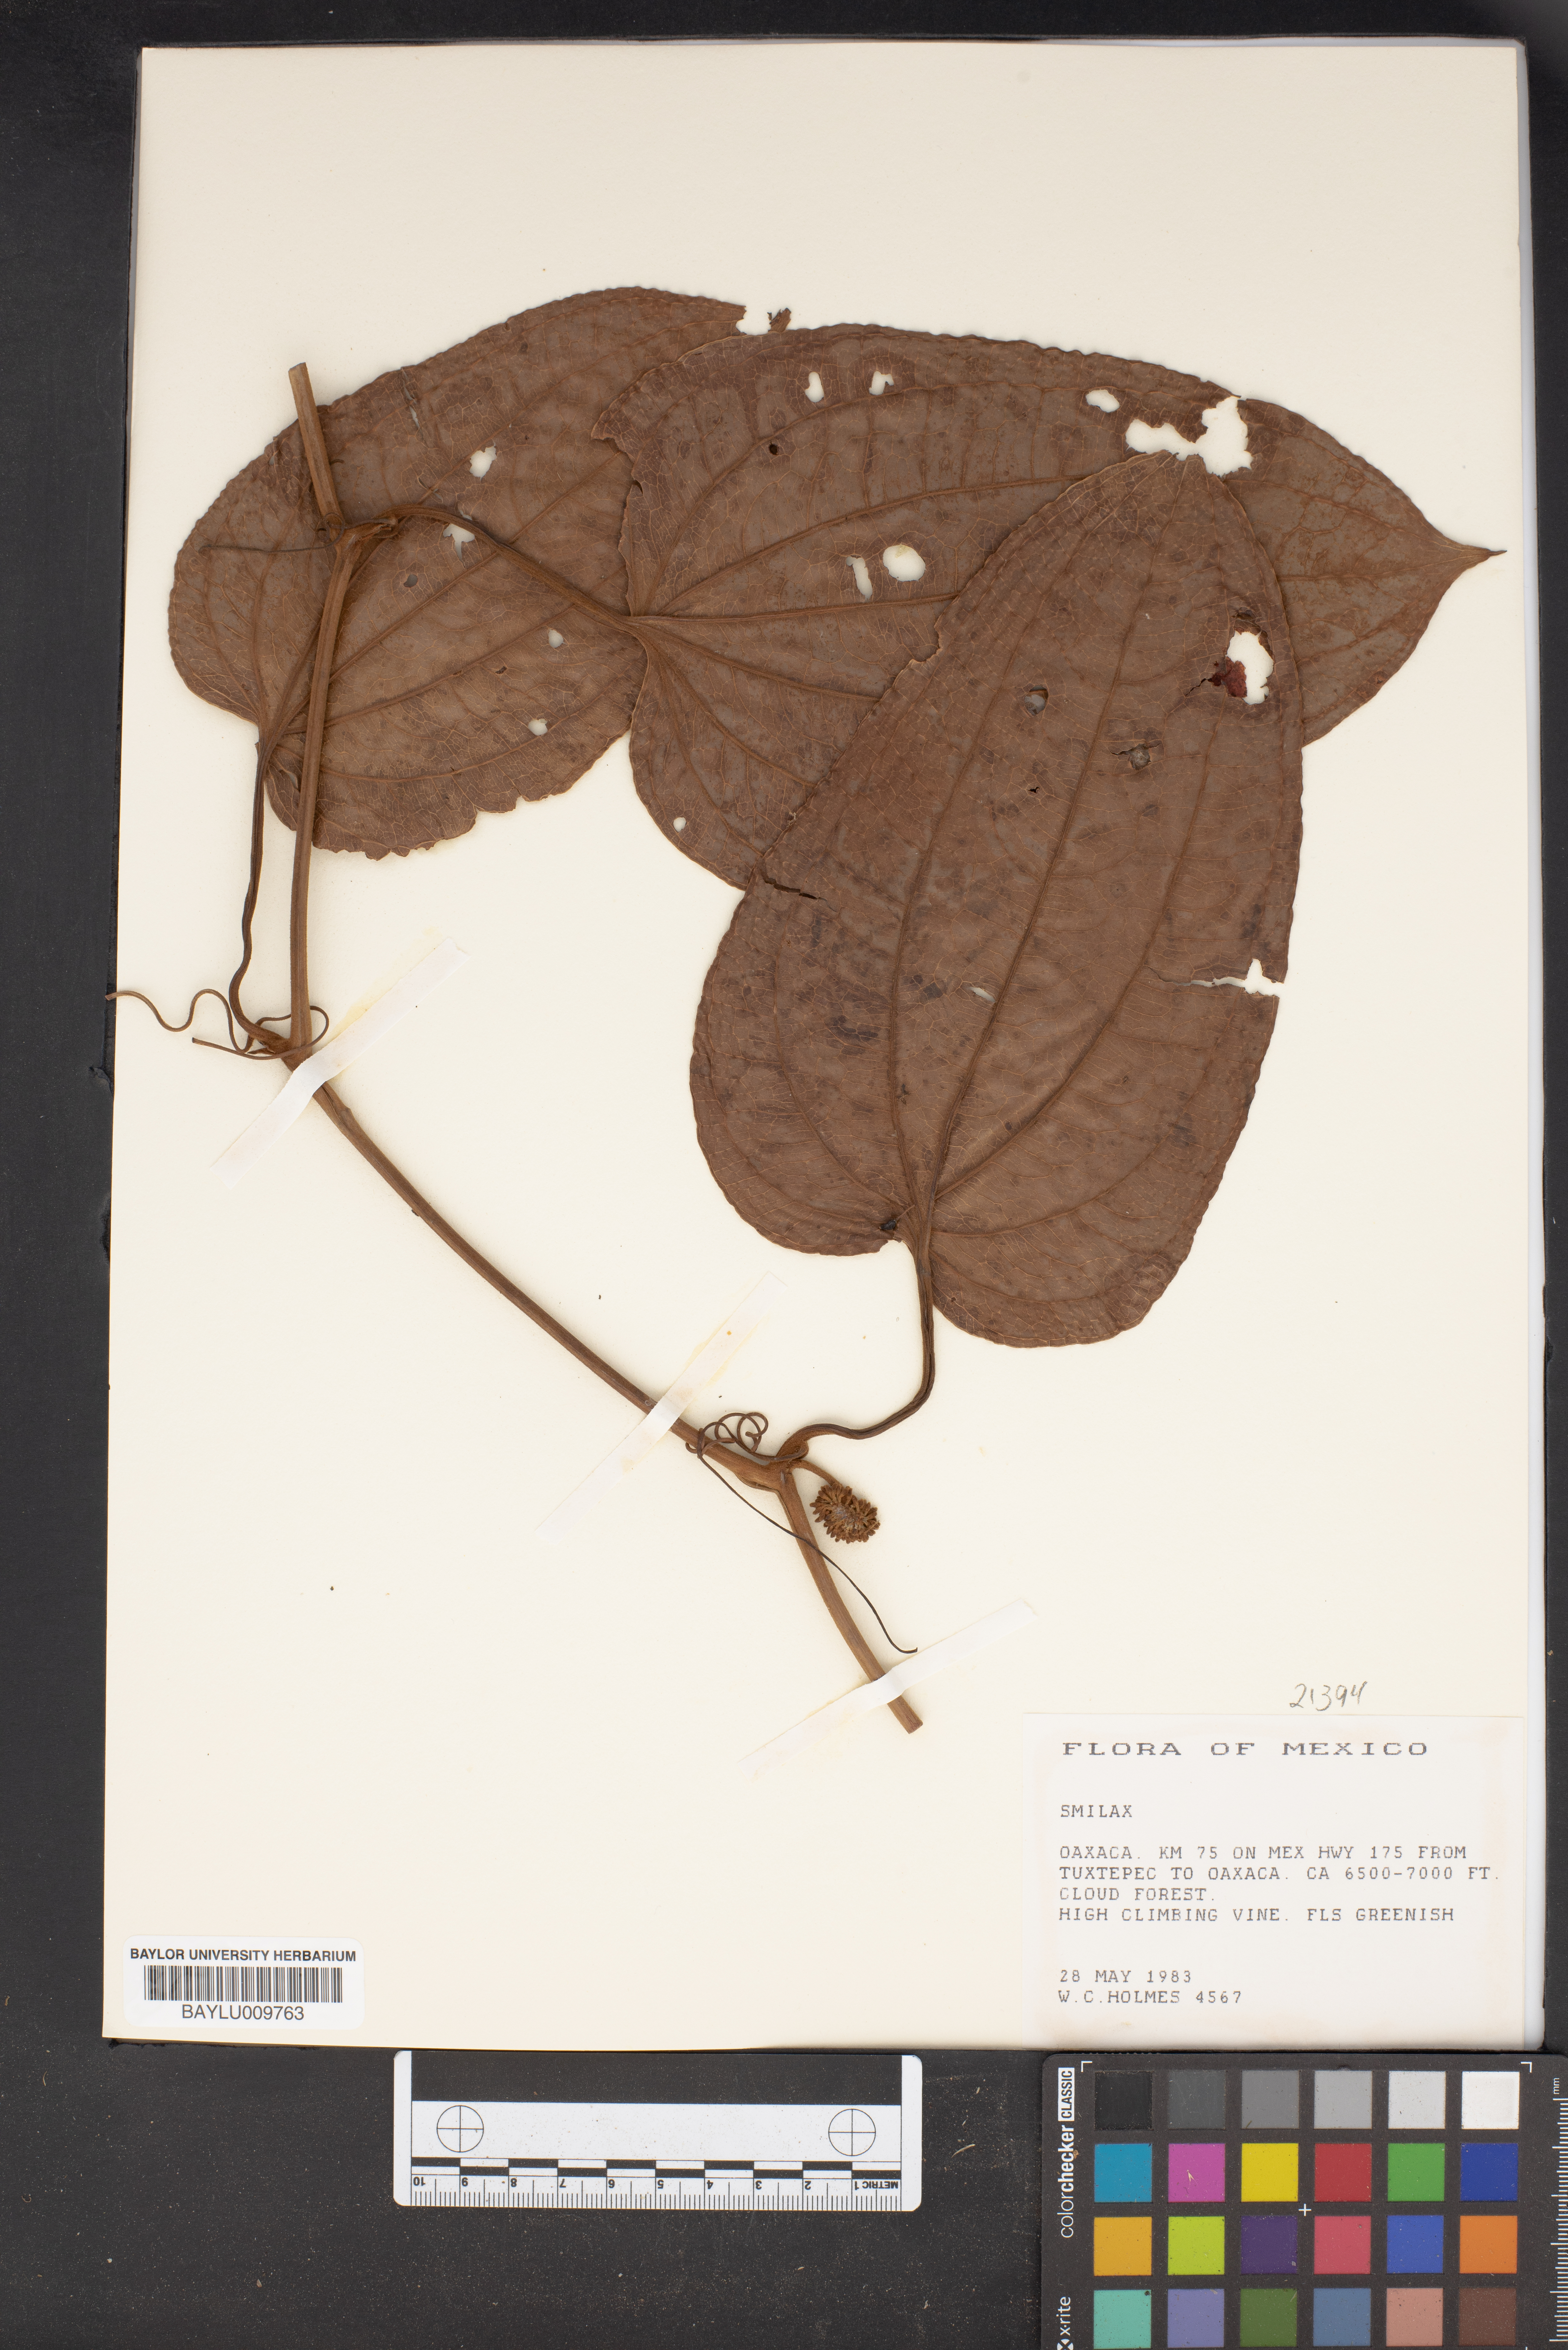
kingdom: Plantae
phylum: Tracheophyta
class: Liliopsida
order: Liliales
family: Smilacaceae
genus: Smilax
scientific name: Smilax
